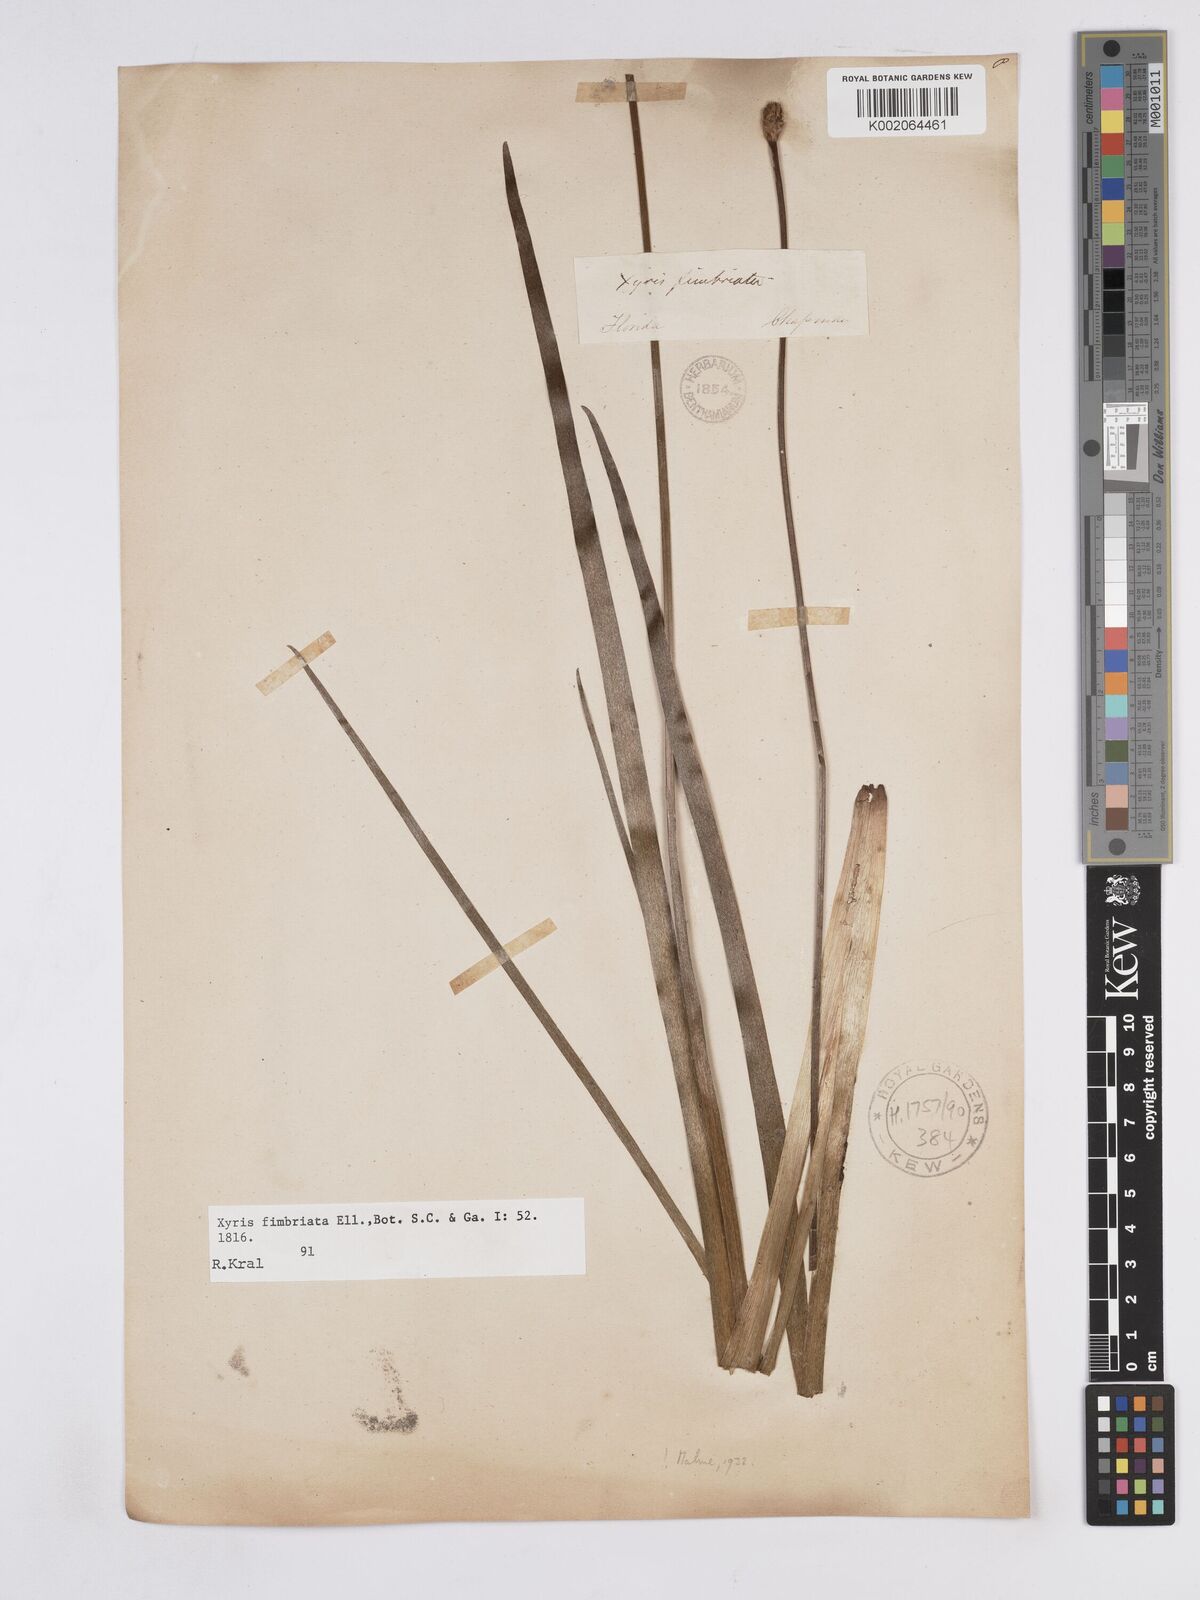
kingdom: Plantae
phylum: Tracheophyta
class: Liliopsida
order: Poales
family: Xyridaceae
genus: Xyris
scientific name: Xyris fimbriata
